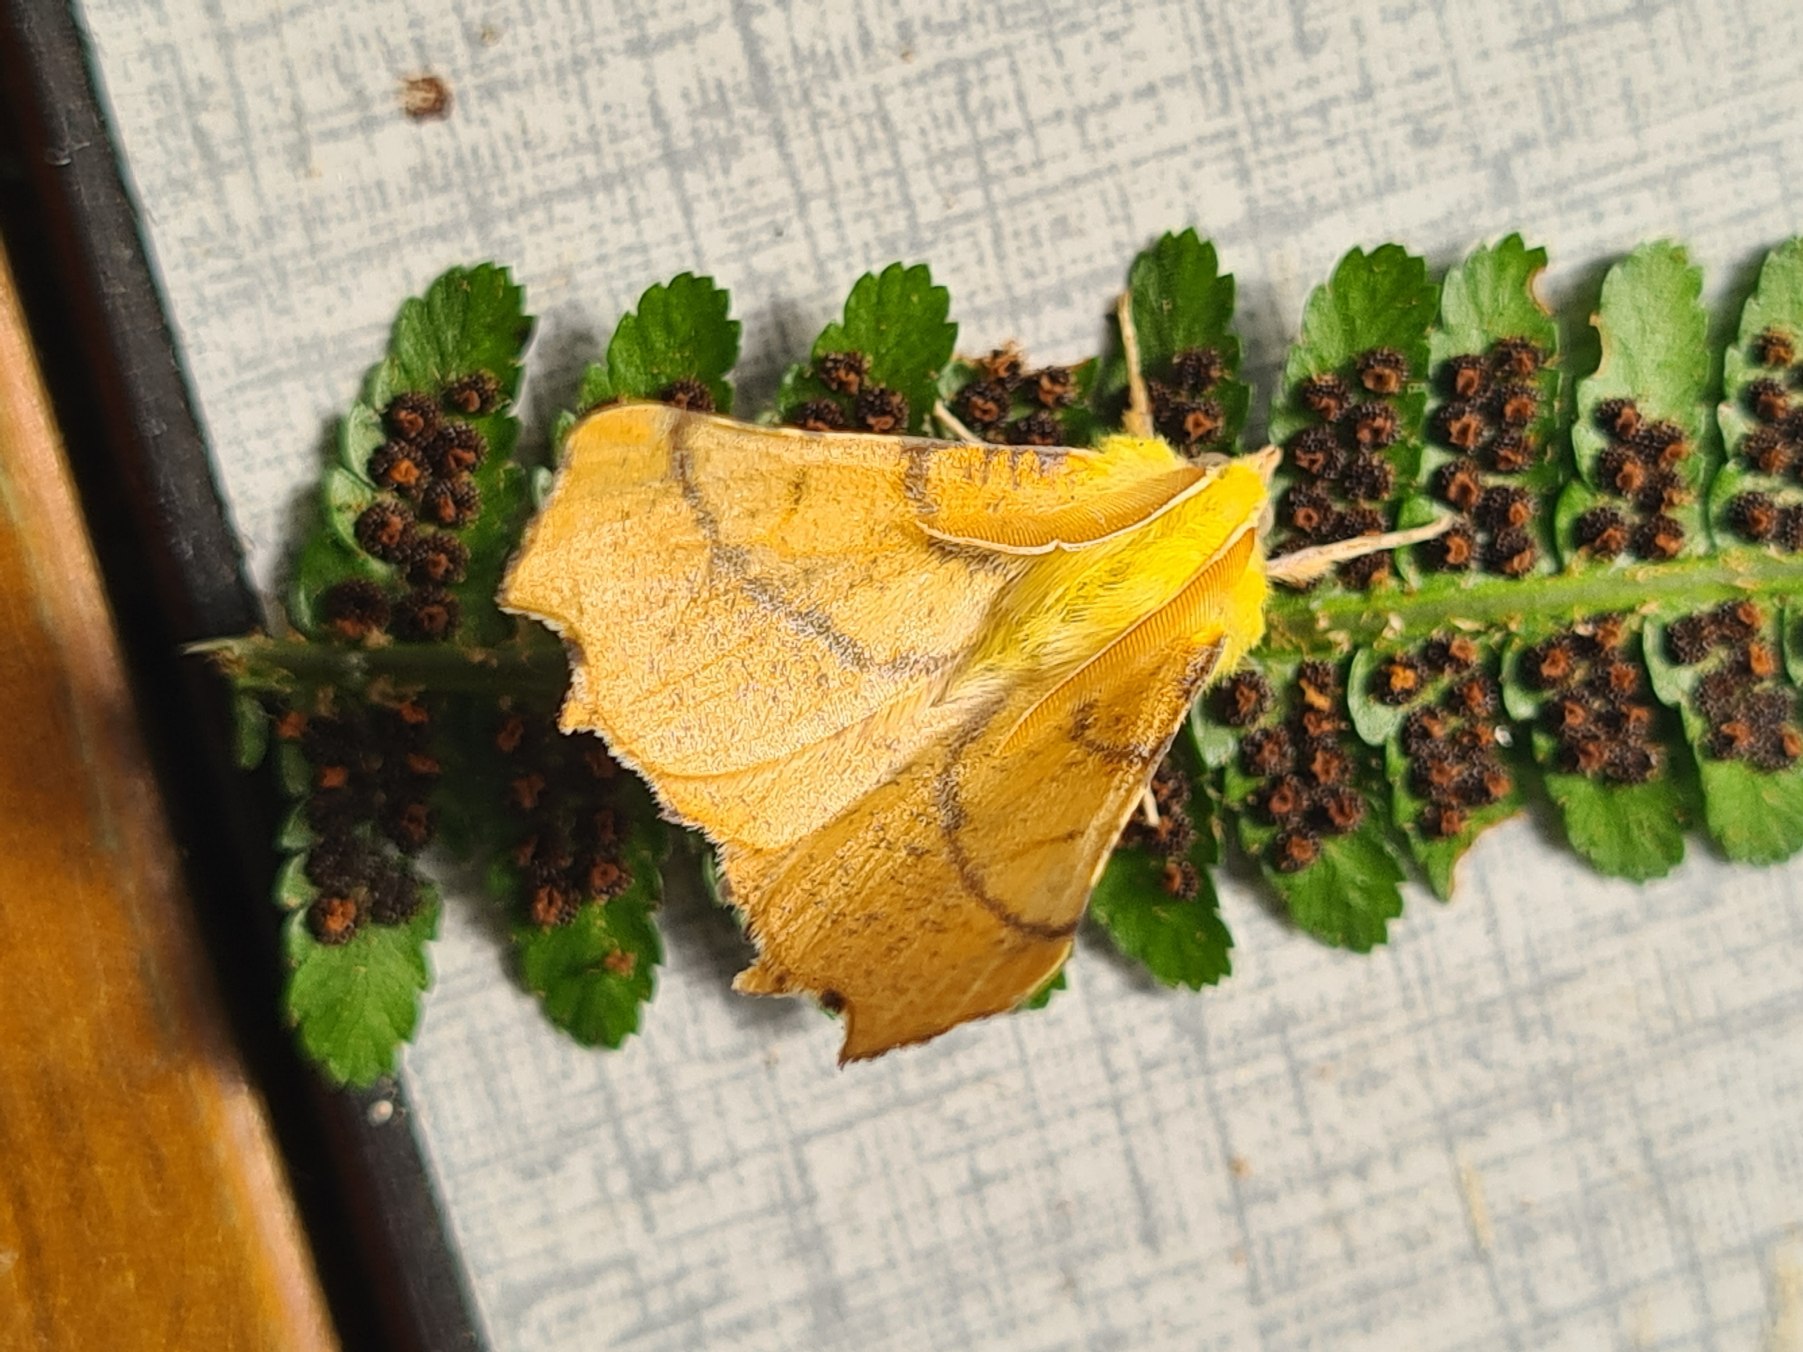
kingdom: Animalia
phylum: Arthropoda
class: Insecta
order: Lepidoptera
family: Geometridae
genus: Ennomos
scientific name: Ennomos alniaria
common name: Elle-tandmåler
